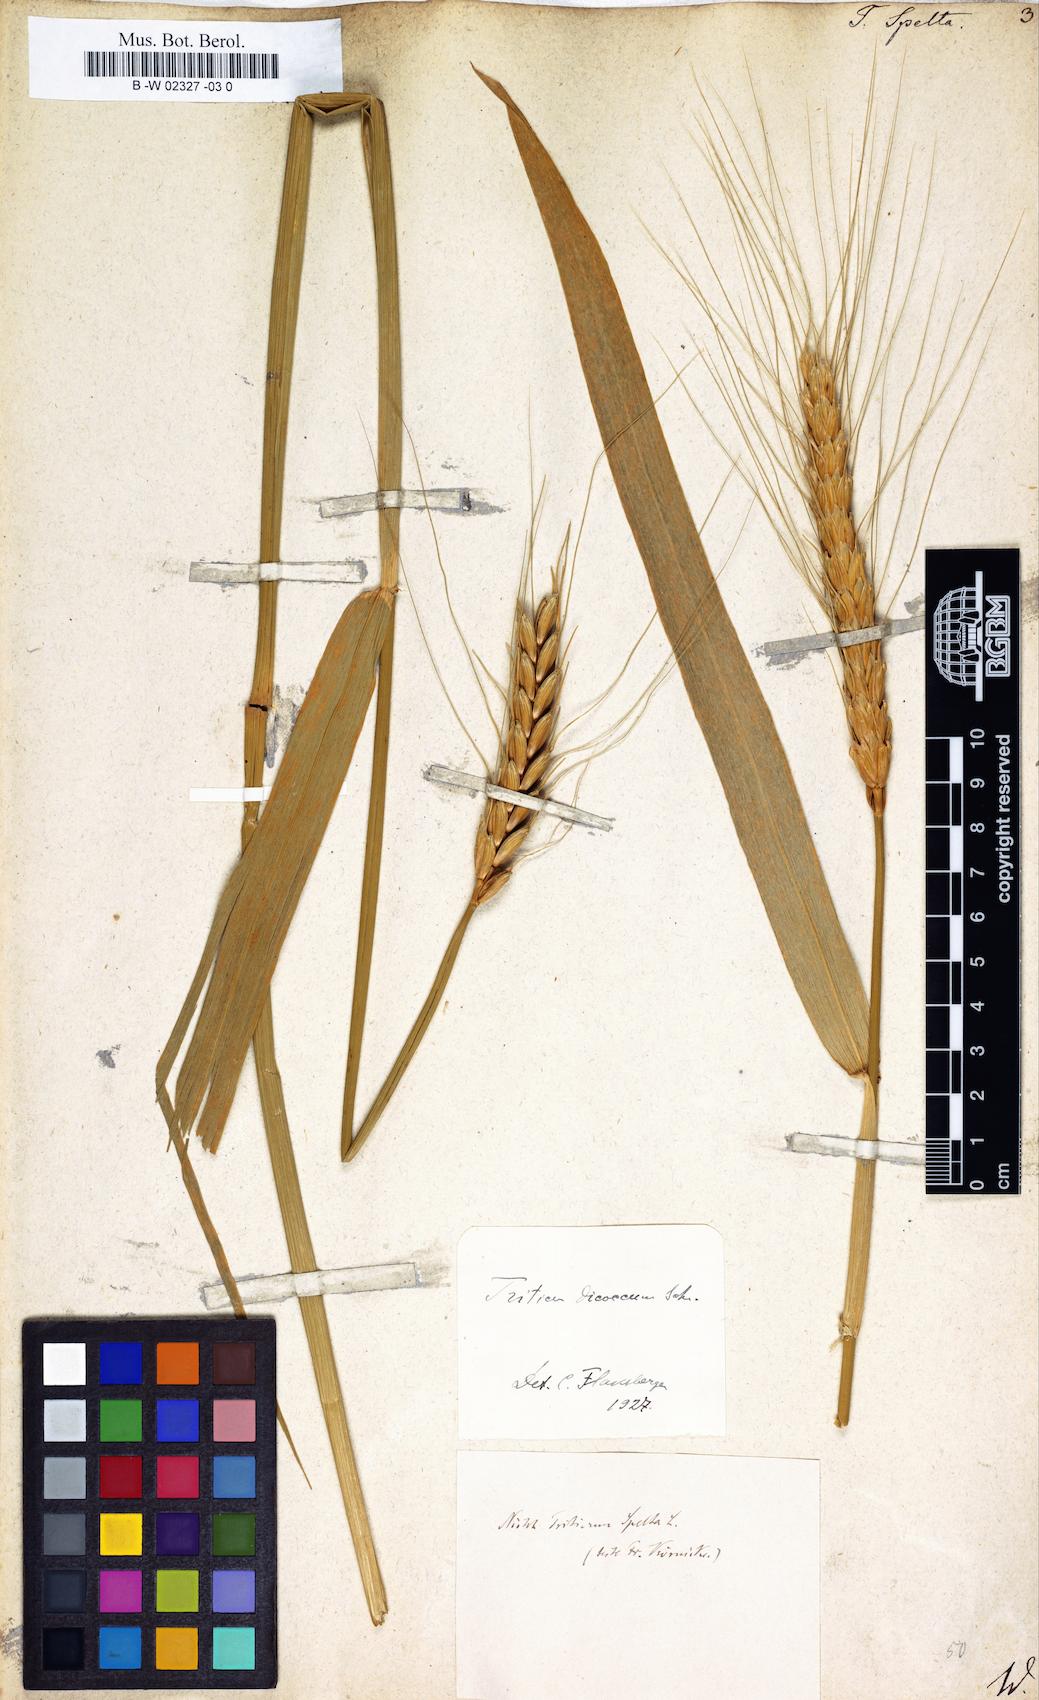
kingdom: Plantae
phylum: Tracheophyta
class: Liliopsida
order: Poales
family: Poaceae
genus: Triticum
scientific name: Triticum aestivum
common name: Common wheat
